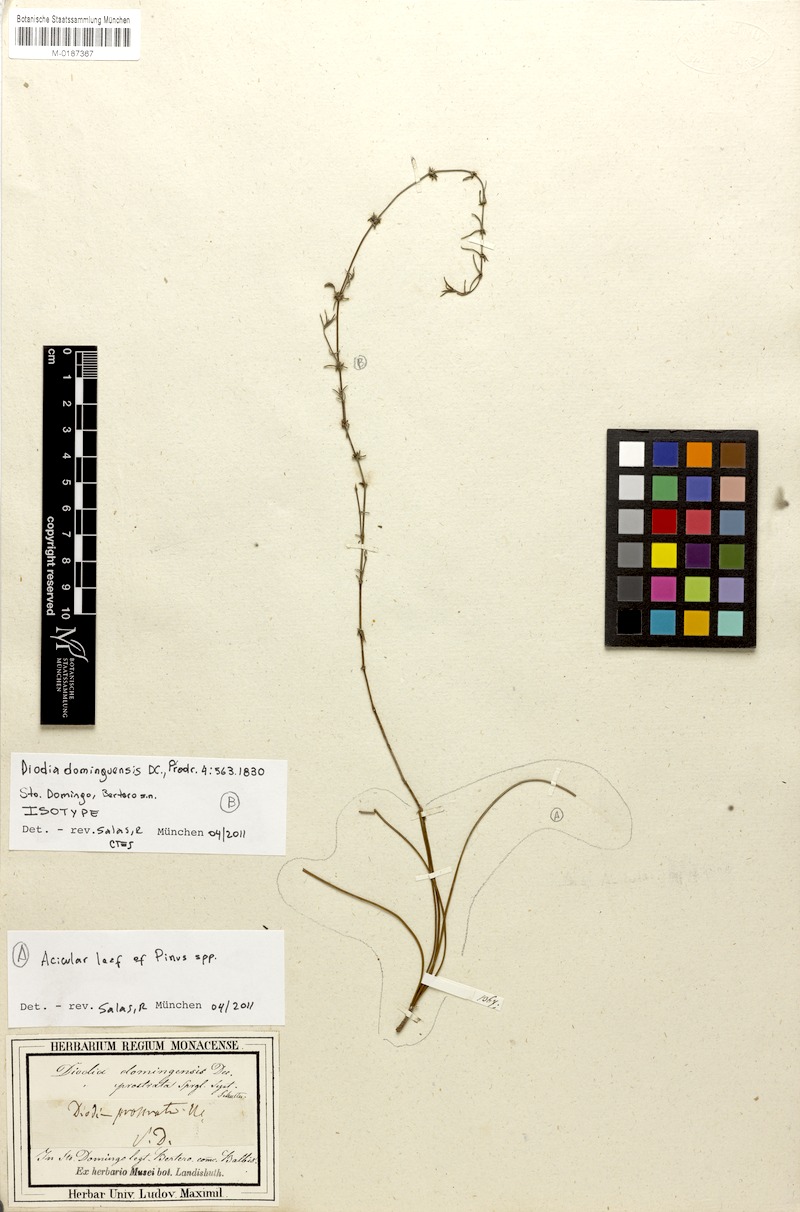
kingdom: Plantae
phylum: Tracheophyta
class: Magnoliopsida
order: Gentianales
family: Rubiaceae
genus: Hexasepalum
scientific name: Hexasepalum domingense
